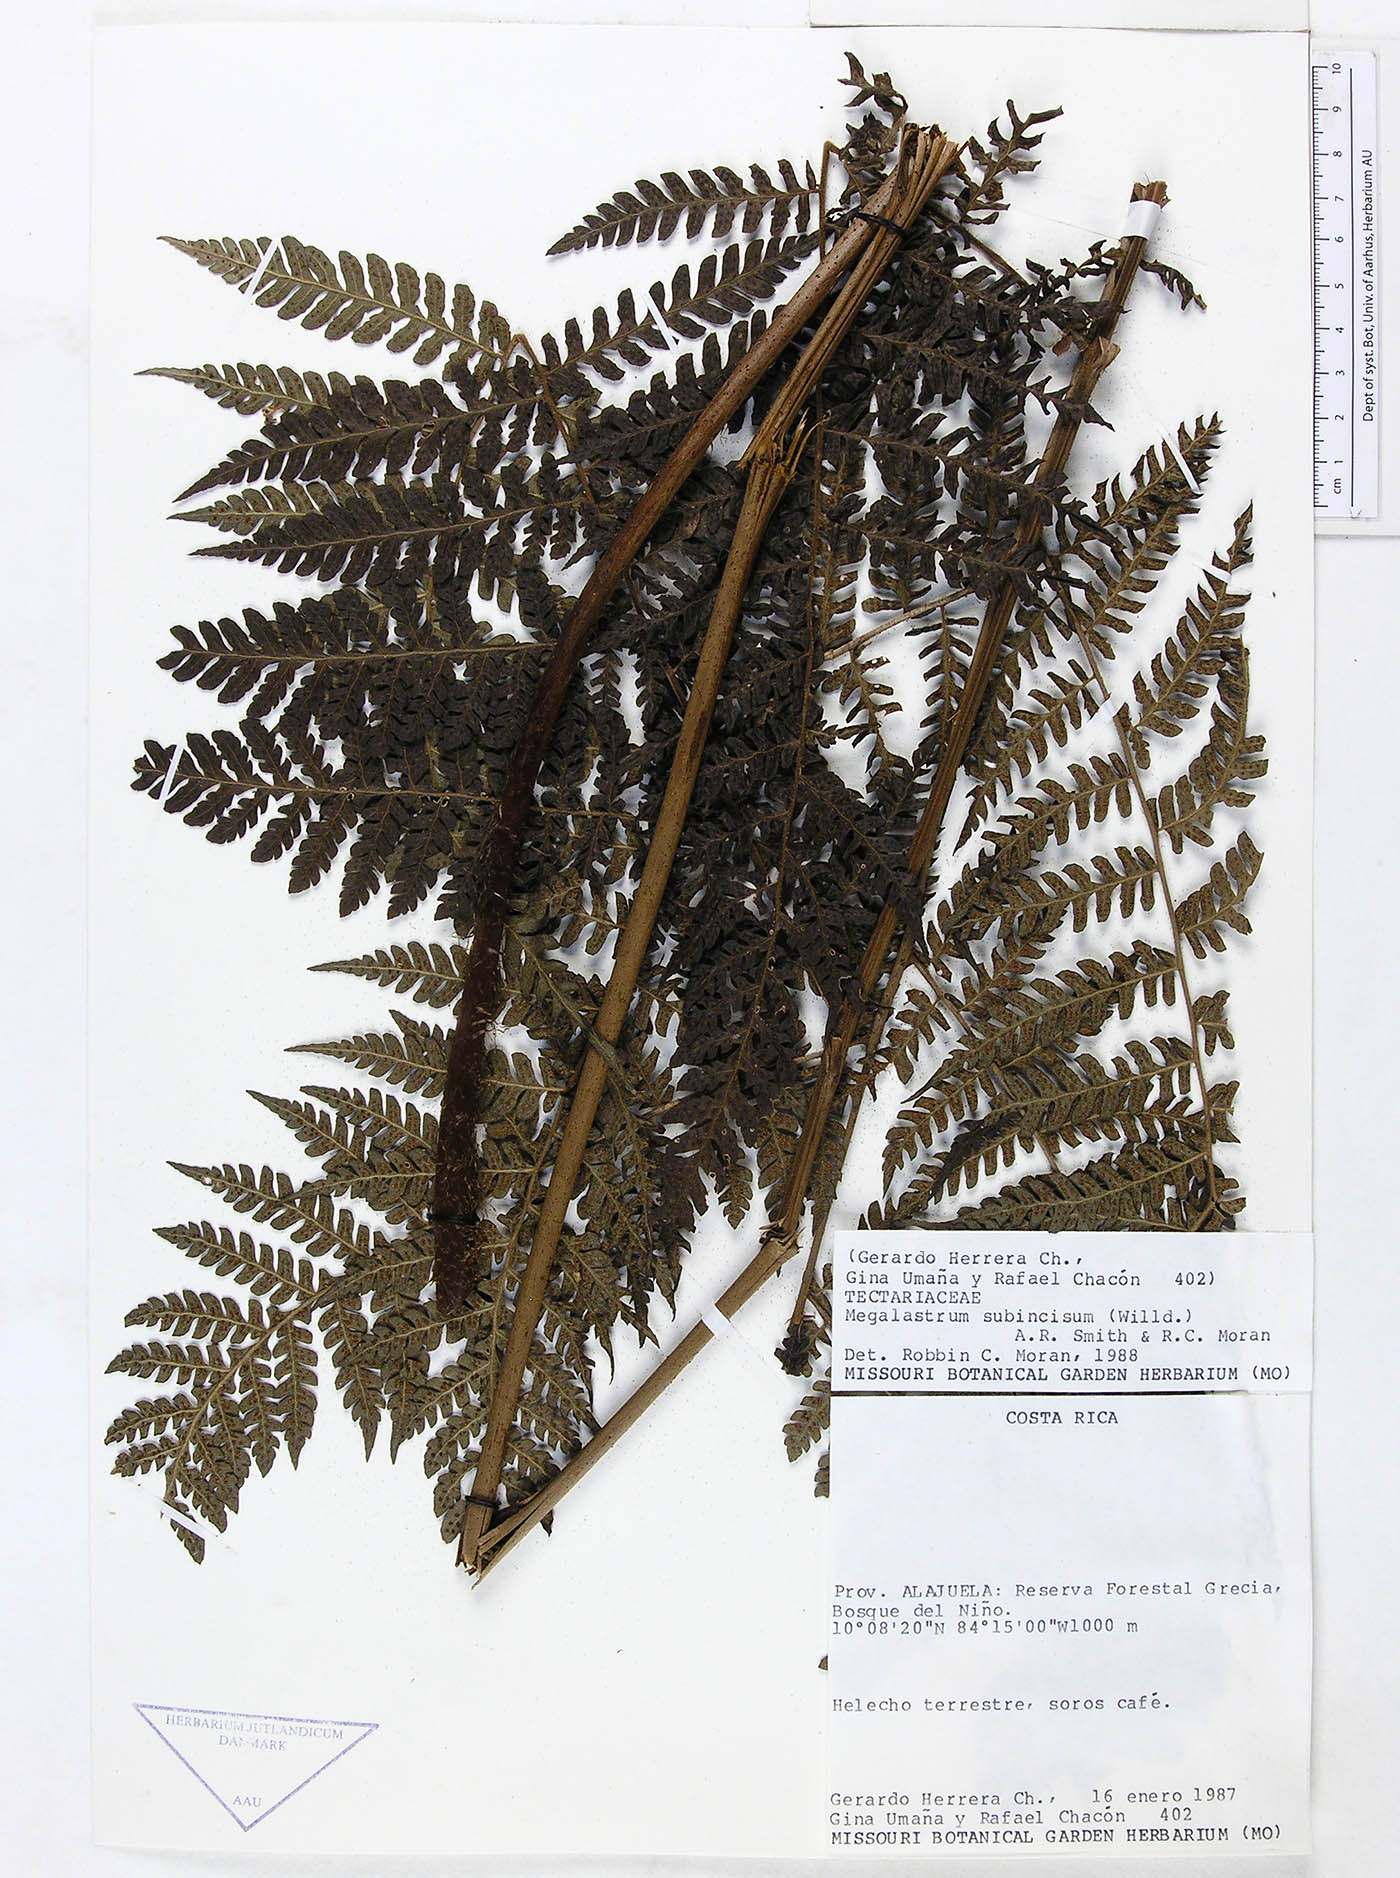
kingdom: Plantae
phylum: Tracheophyta
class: Polypodiopsida
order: Polypodiales
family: Dryopteridaceae
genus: Megalastrum
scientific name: Megalastrum atrogriseum
